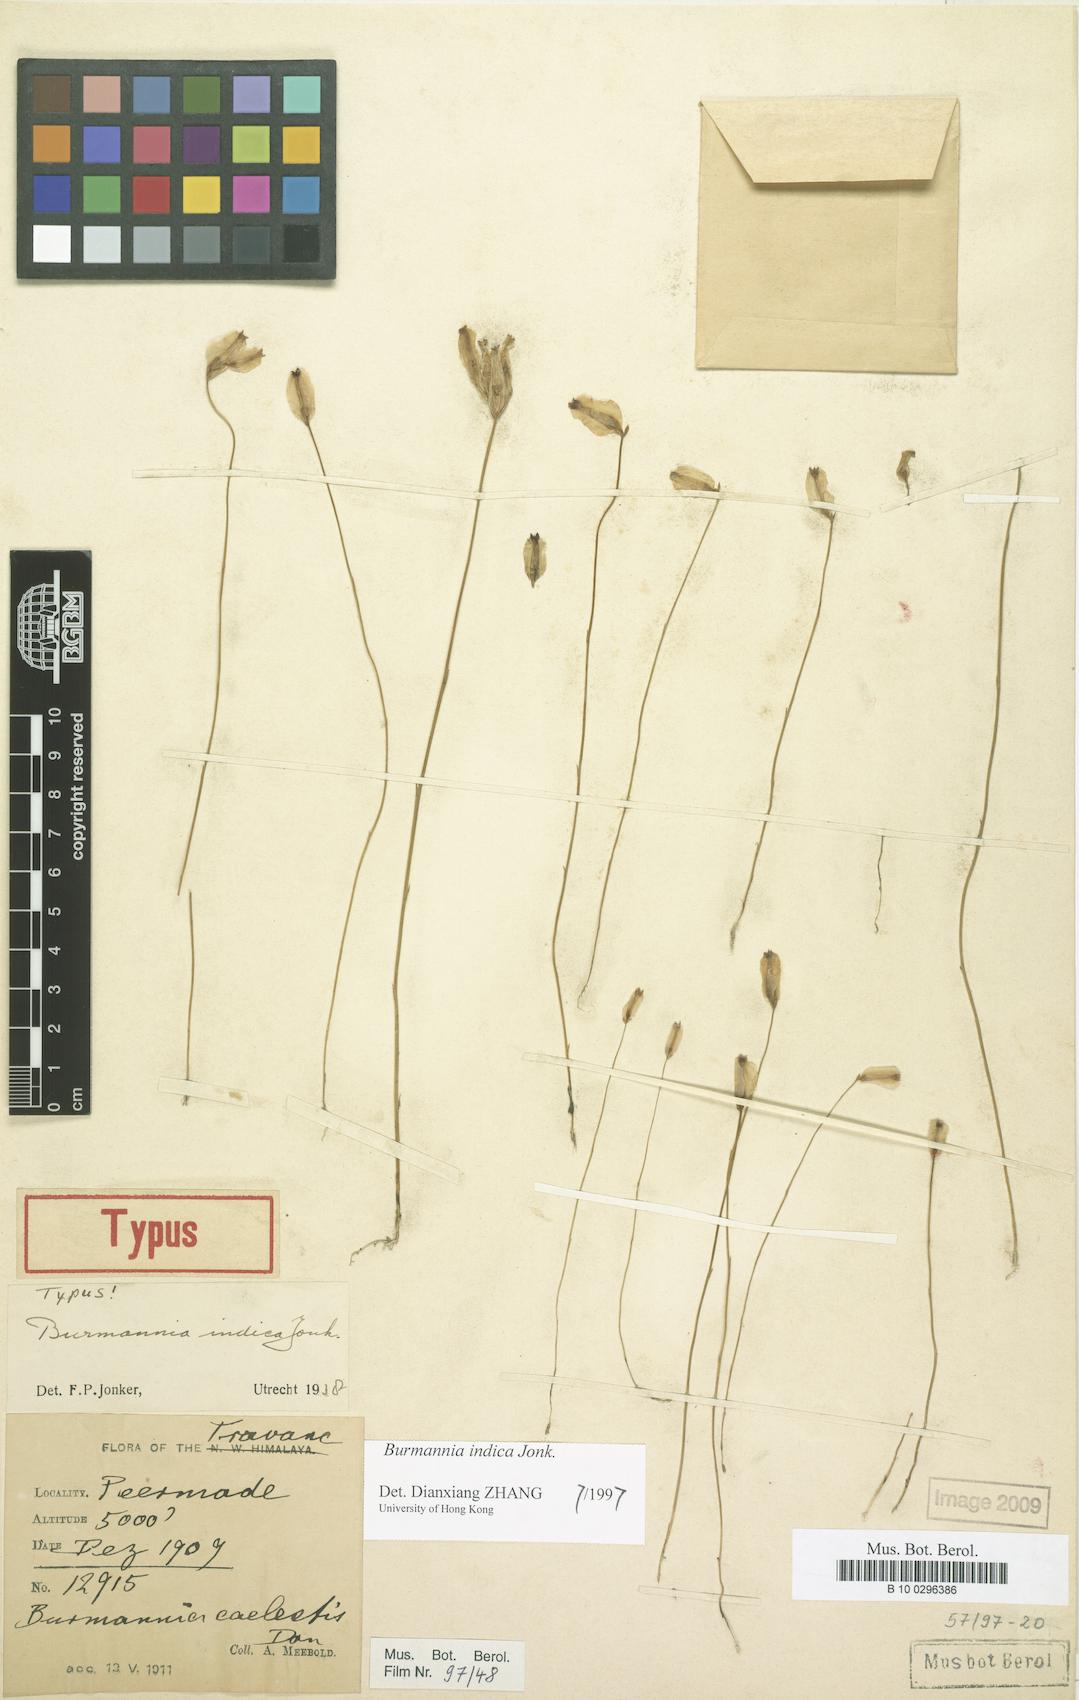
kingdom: Plantae
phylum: Tracheophyta
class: Liliopsida
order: Dioscoreales
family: Burmanniaceae
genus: Burmannia
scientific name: Burmannia indica
